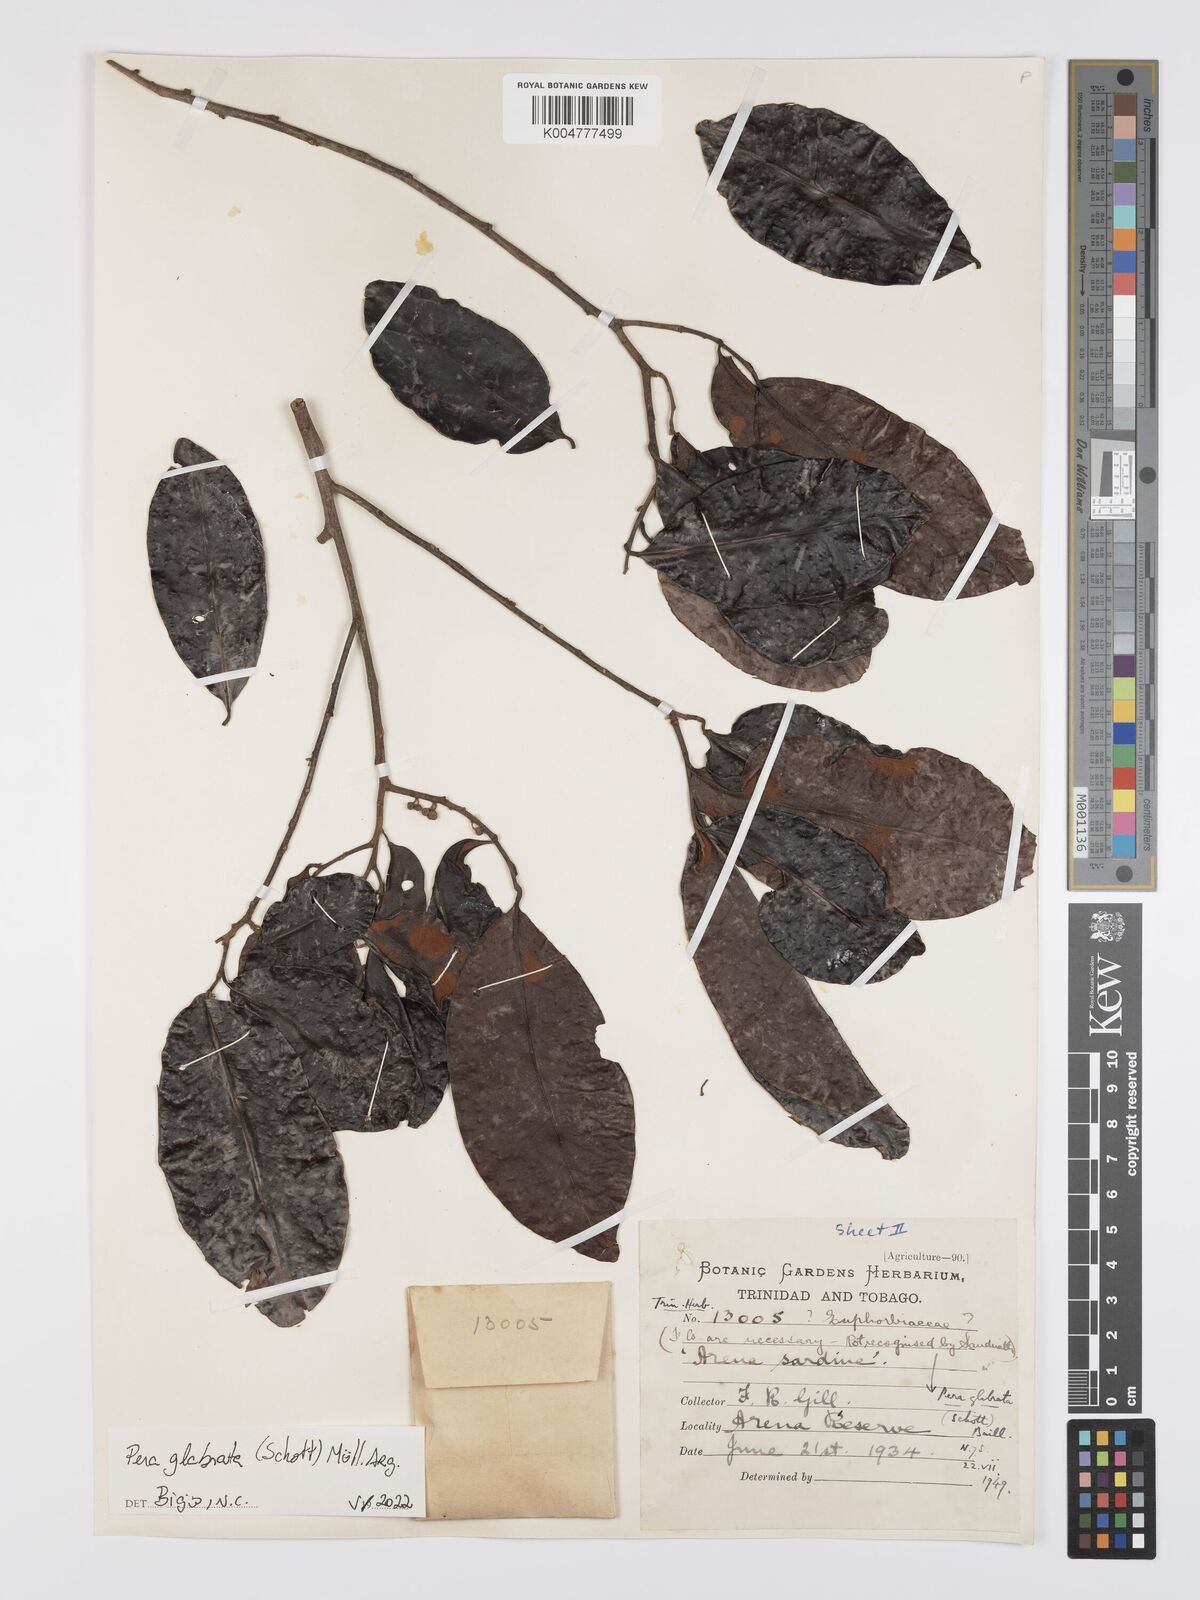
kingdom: Plantae
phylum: Tracheophyta
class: Magnoliopsida
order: Malpighiales
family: Peraceae
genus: Pera
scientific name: Pera glabrata
